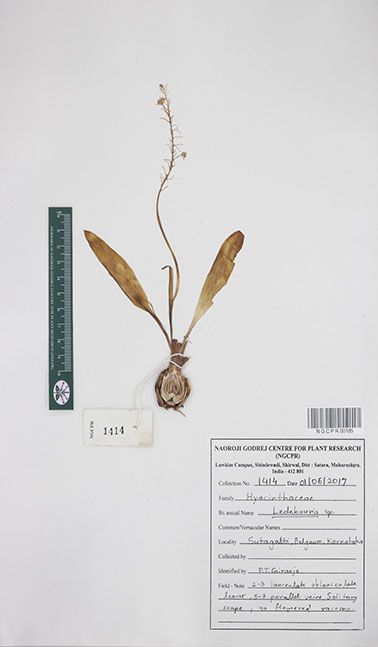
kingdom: Plantae
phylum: Tracheophyta
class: Liliopsida
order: Asparagales
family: Asparagaceae
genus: Ledebouria
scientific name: Ledebouria
